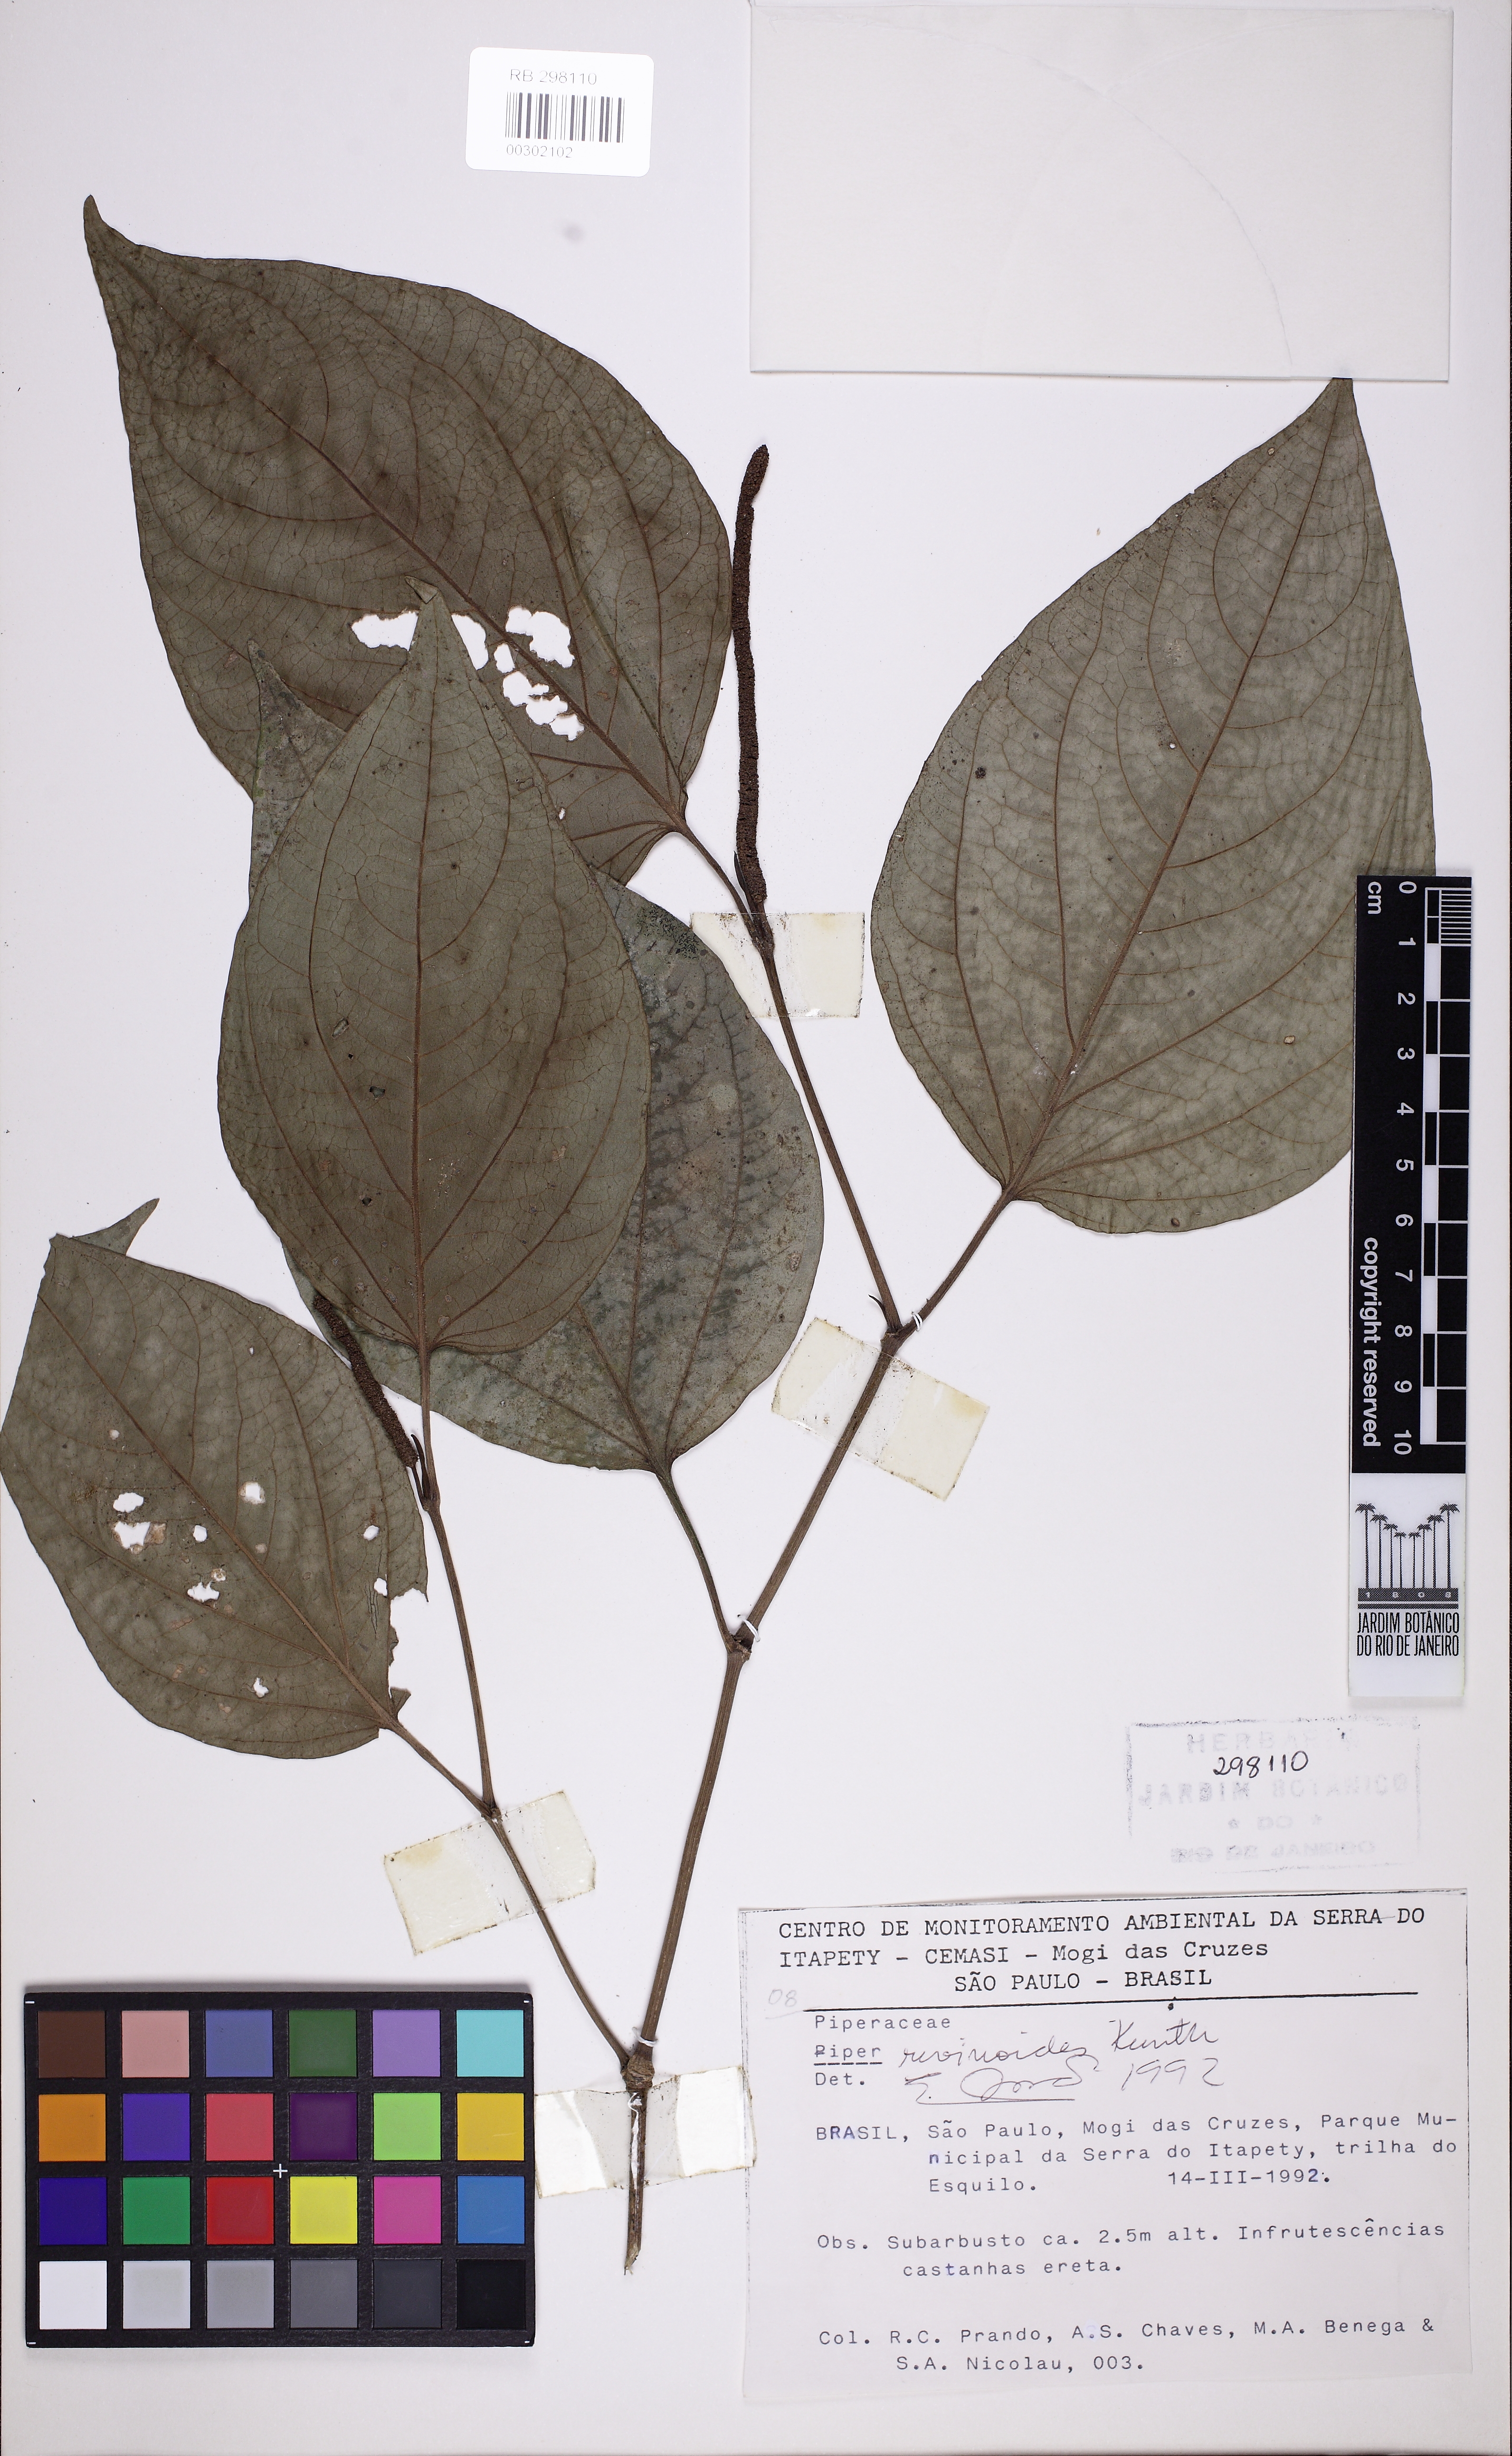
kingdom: Plantae
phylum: Tracheophyta
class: Magnoliopsida
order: Piperales
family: Piperaceae
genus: Piper
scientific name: Piper rivinoides
